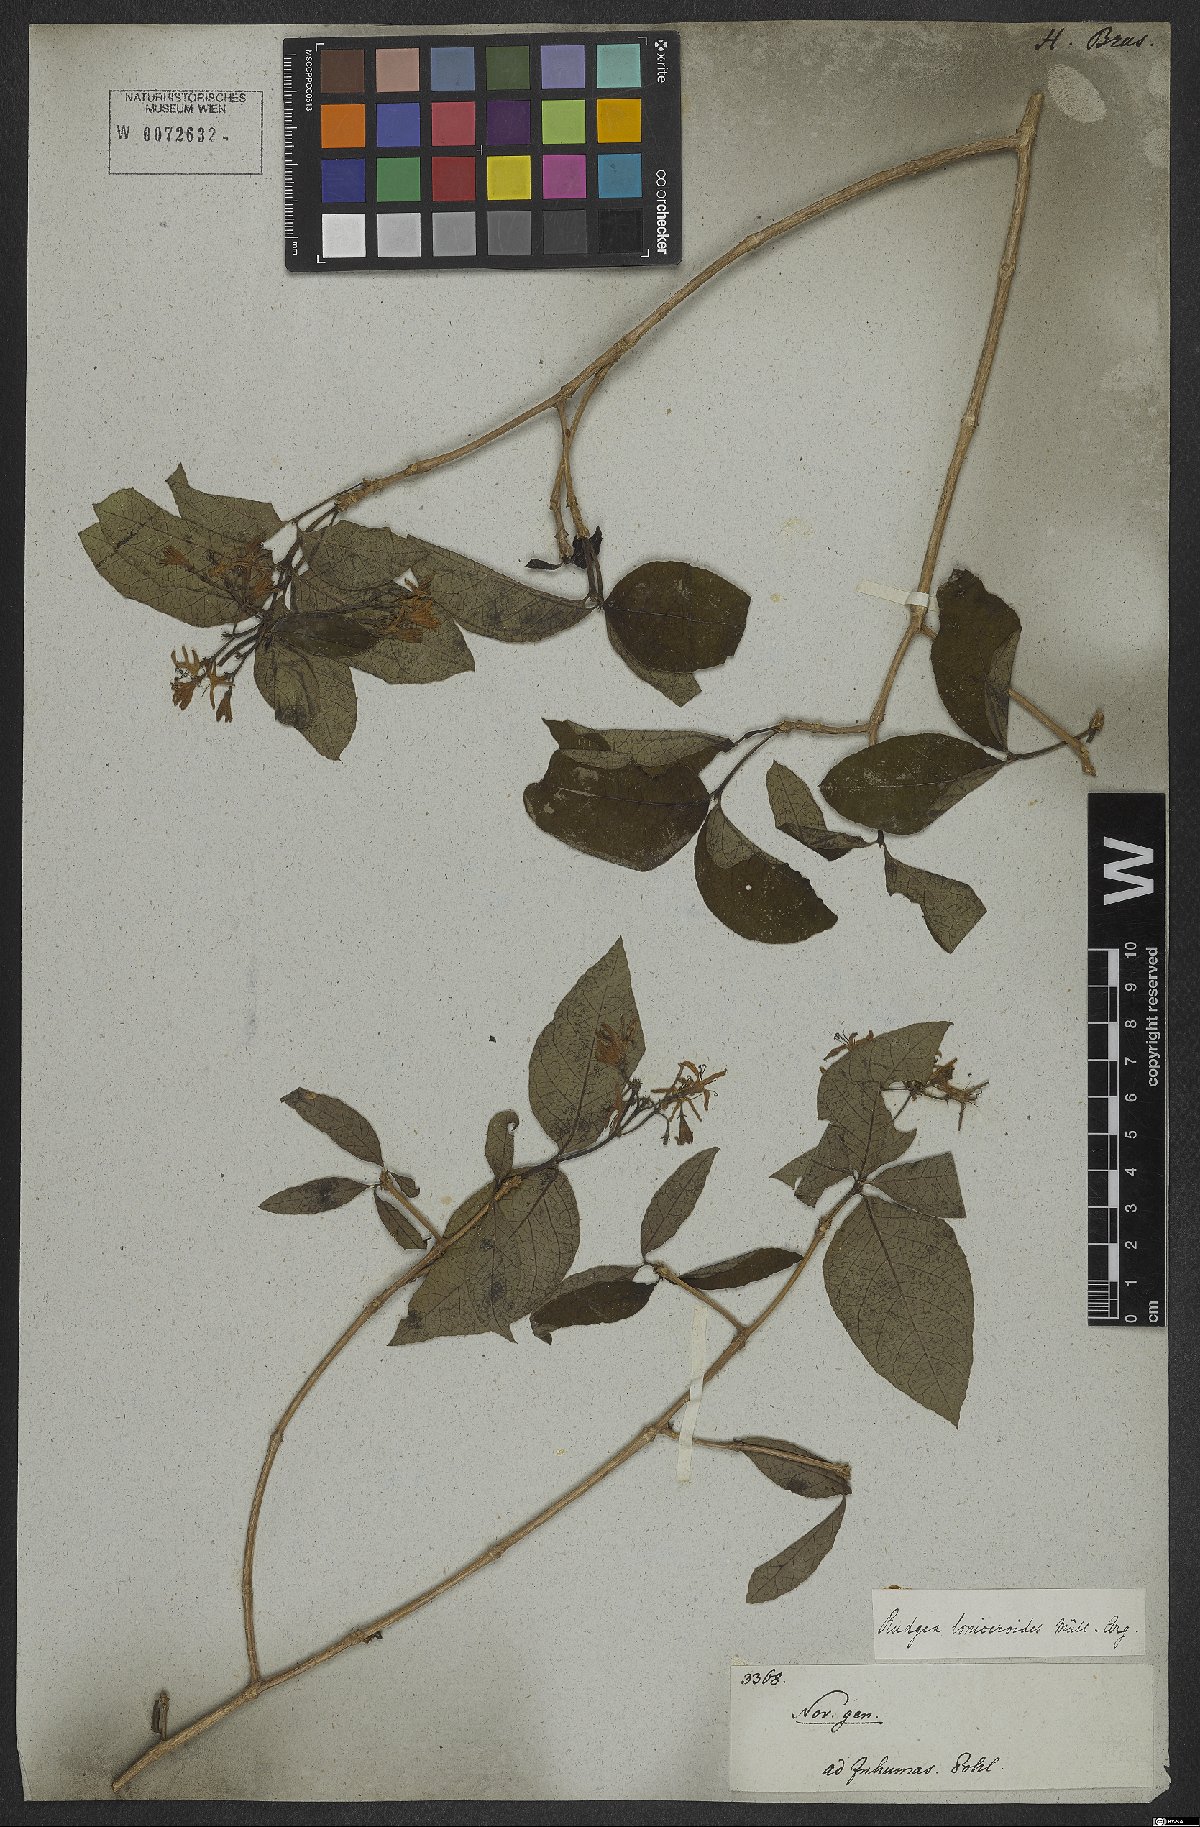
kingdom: Plantae
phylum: Tracheophyta
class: Magnoliopsida
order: Gentianales
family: Rubiaceae
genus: Rudgea
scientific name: Rudgea minor
